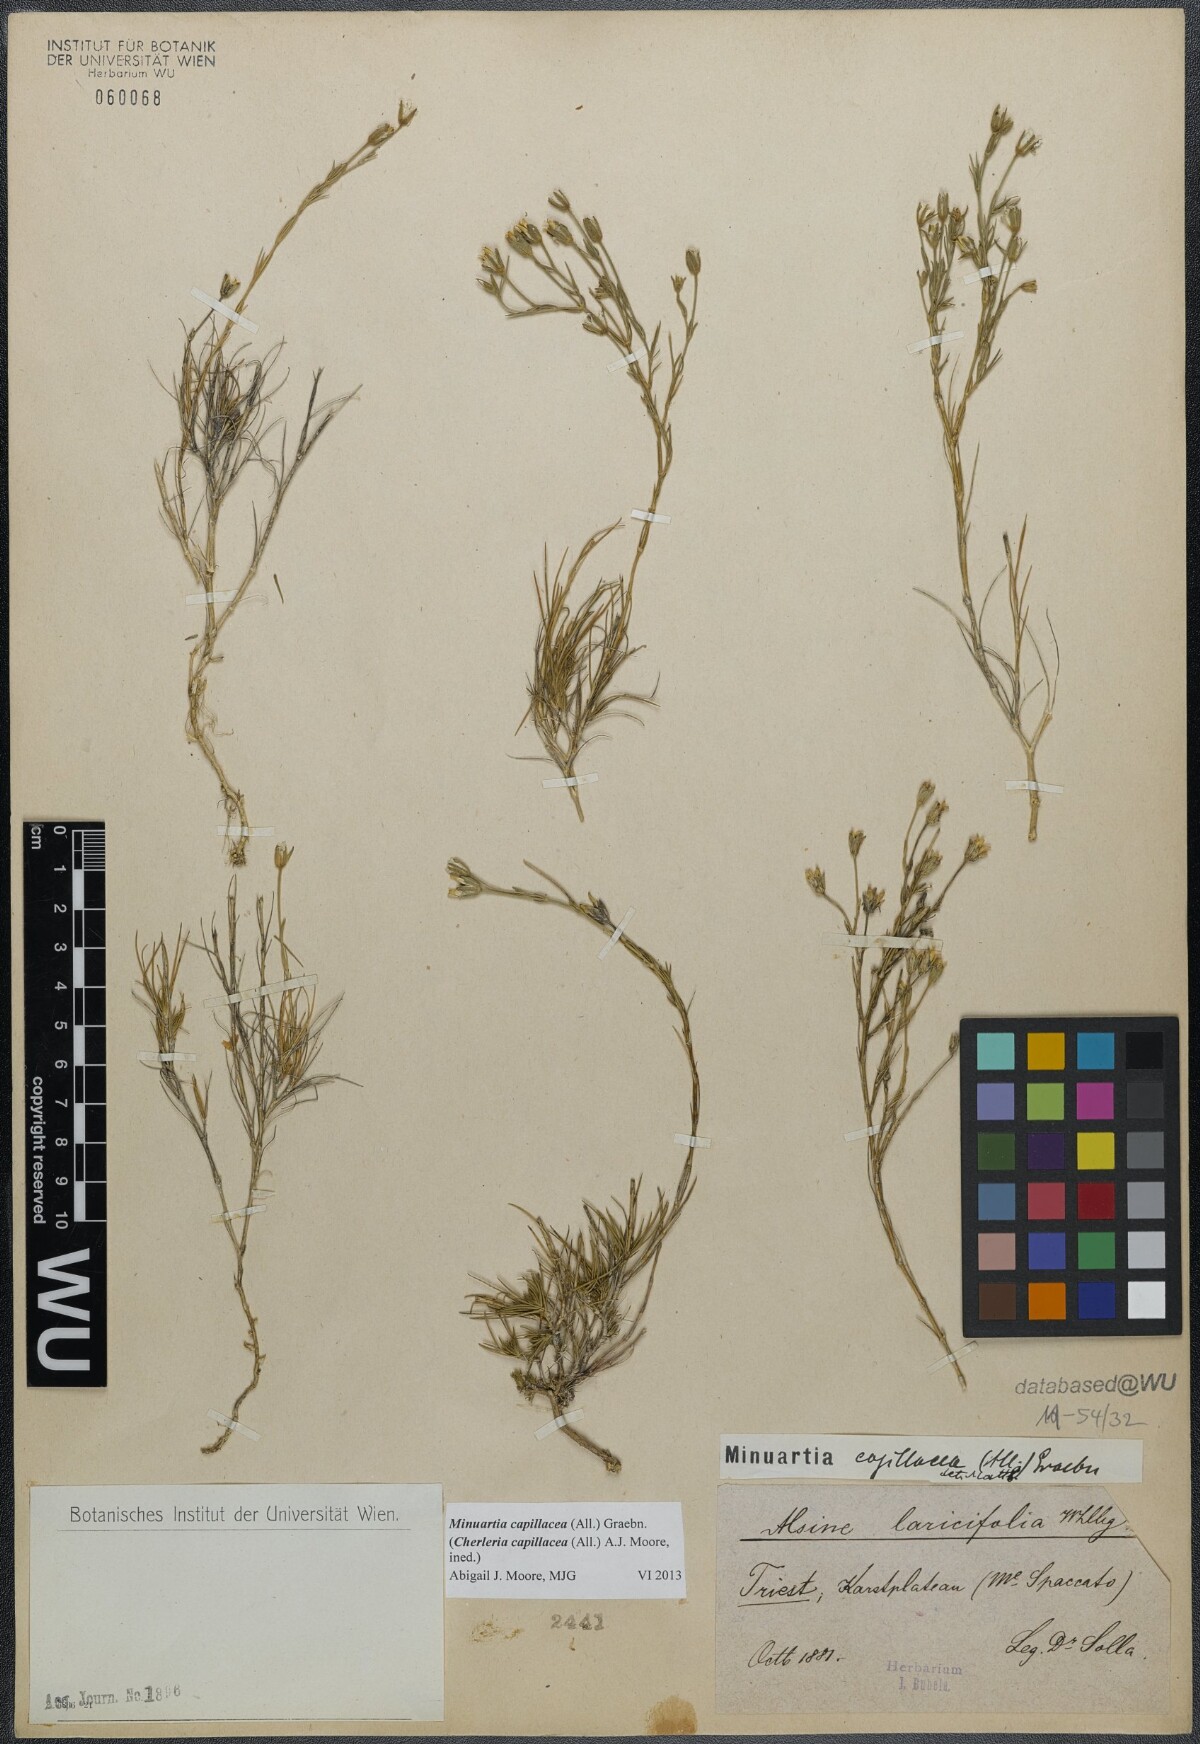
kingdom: Plantae
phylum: Tracheophyta
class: Magnoliopsida
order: Caryophyllales
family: Caryophyllaceae
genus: Cherleria
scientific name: Cherleria capillacea
